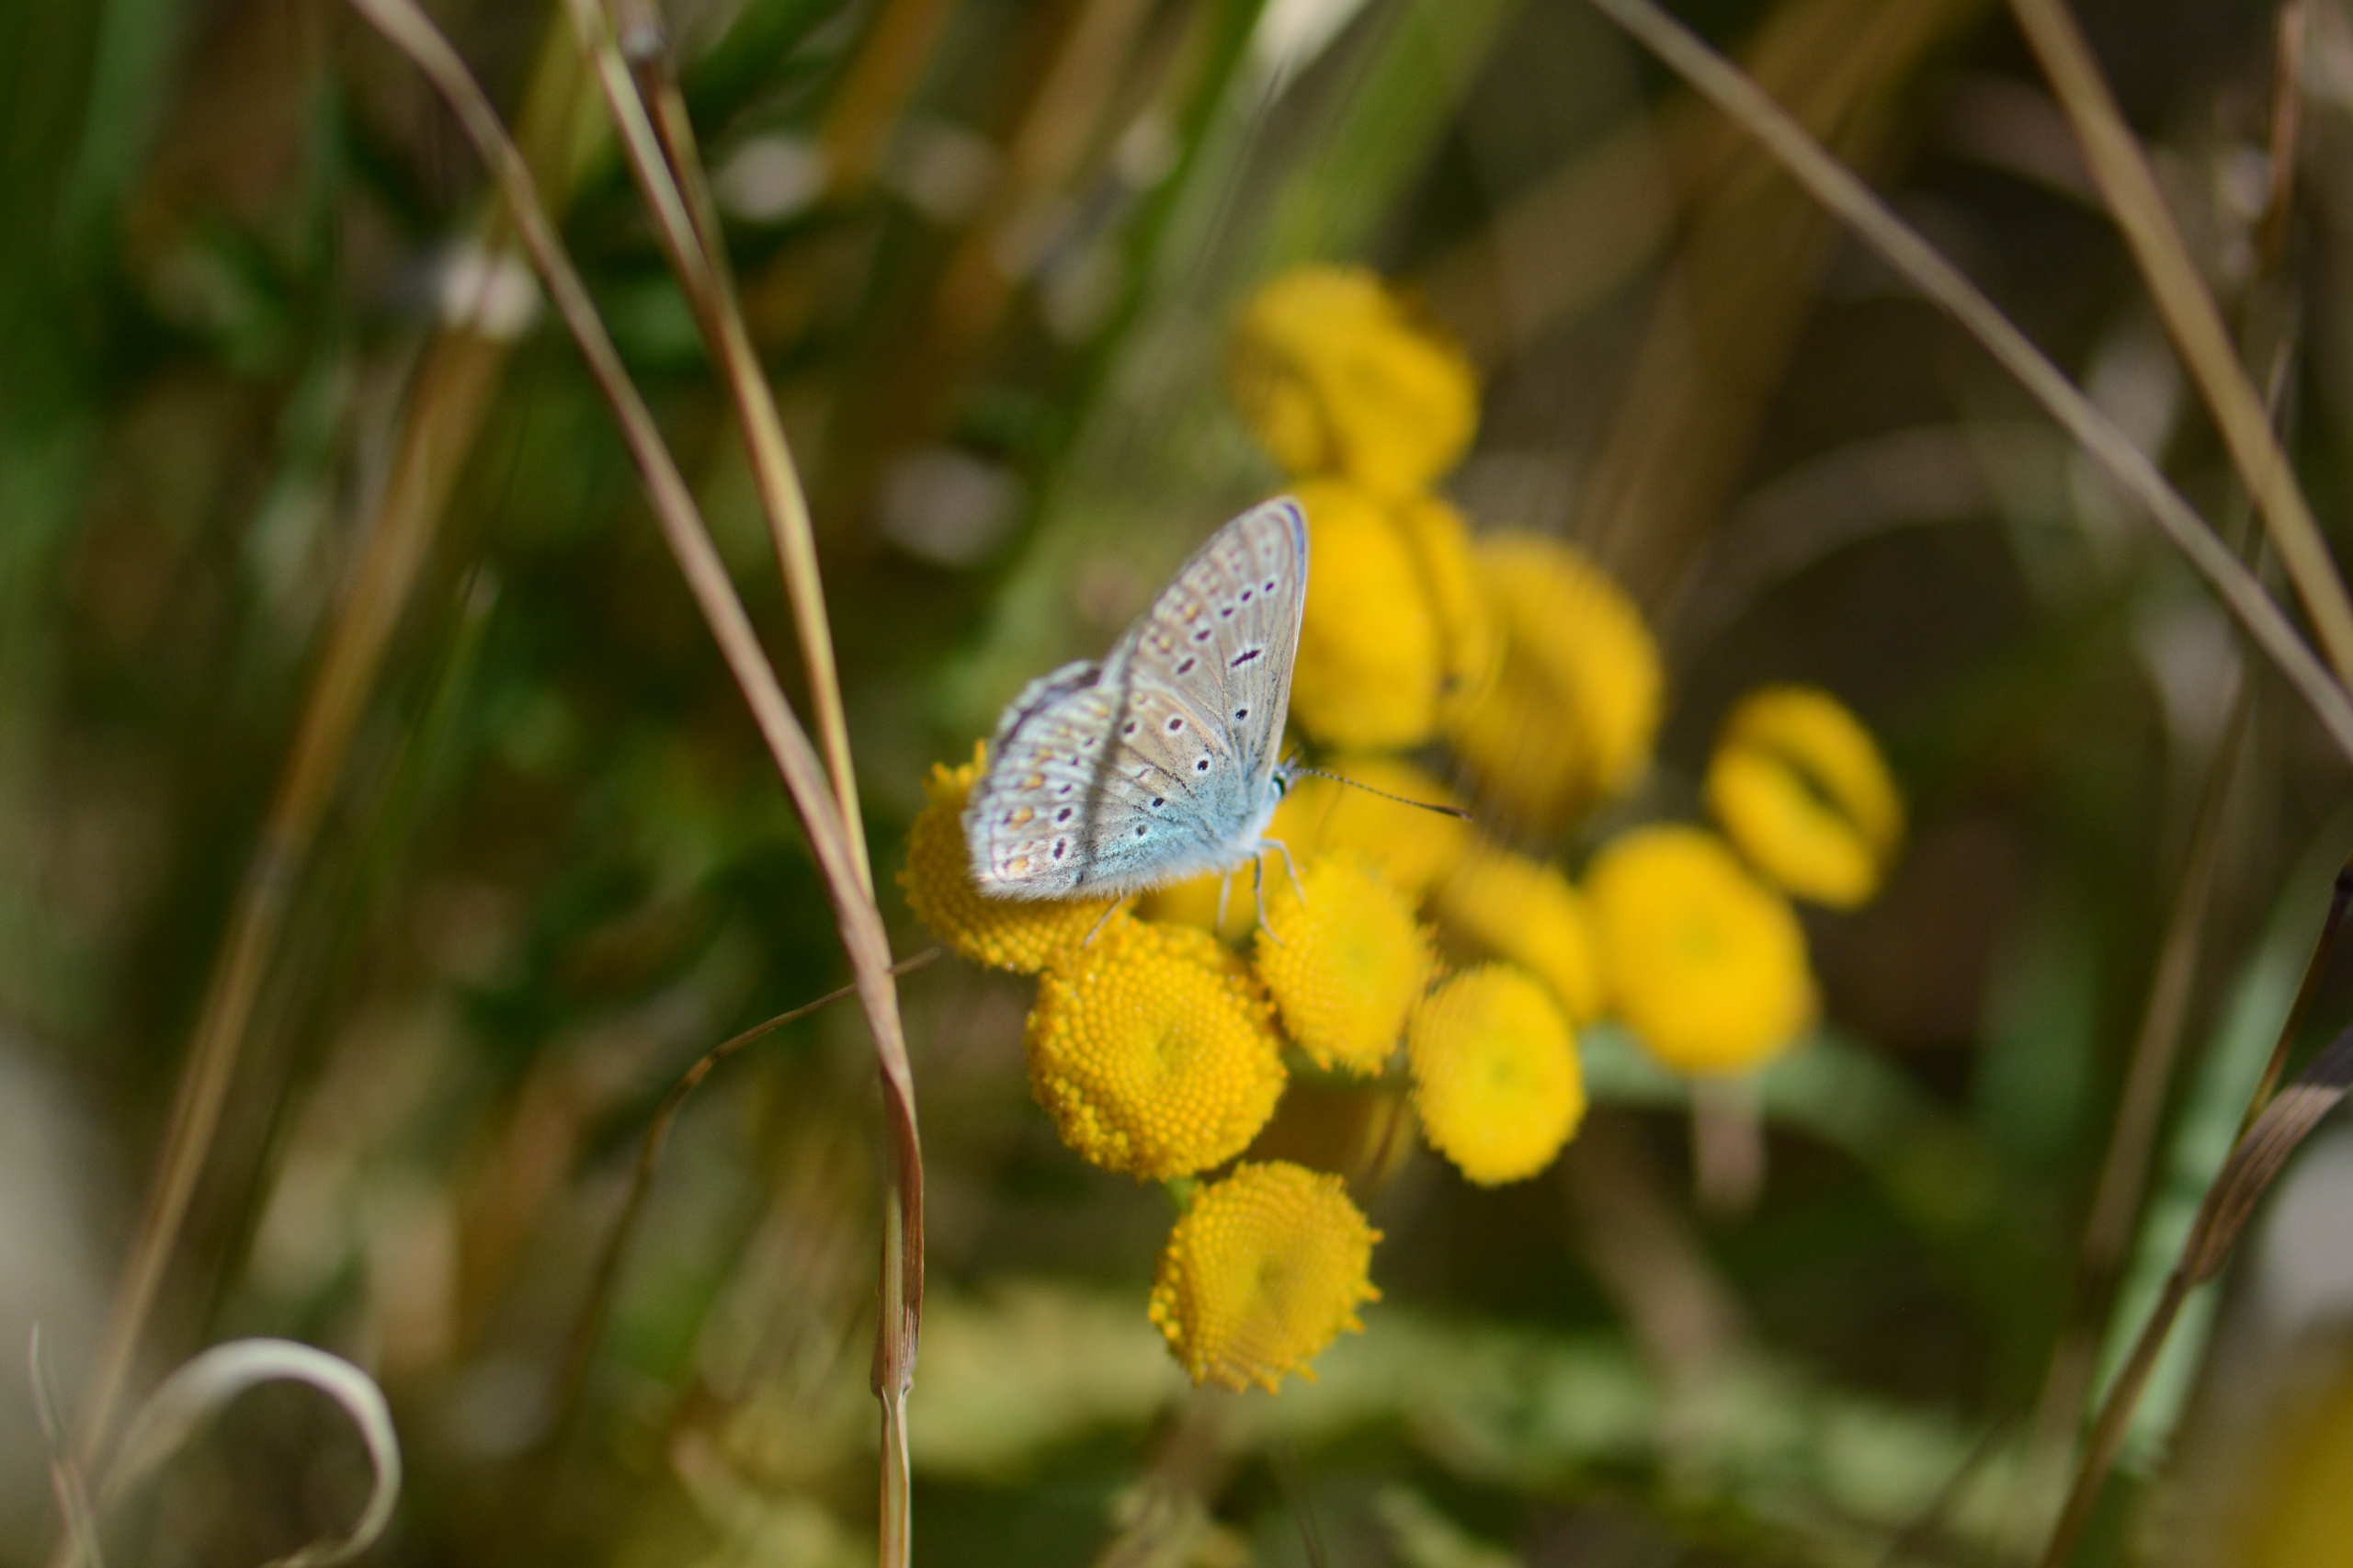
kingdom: Animalia
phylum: Arthropoda
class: Insecta
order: Lepidoptera
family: Lycaenidae
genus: Polyommatus
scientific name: Polyommatus icarus
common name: Almindelig blåfugl
